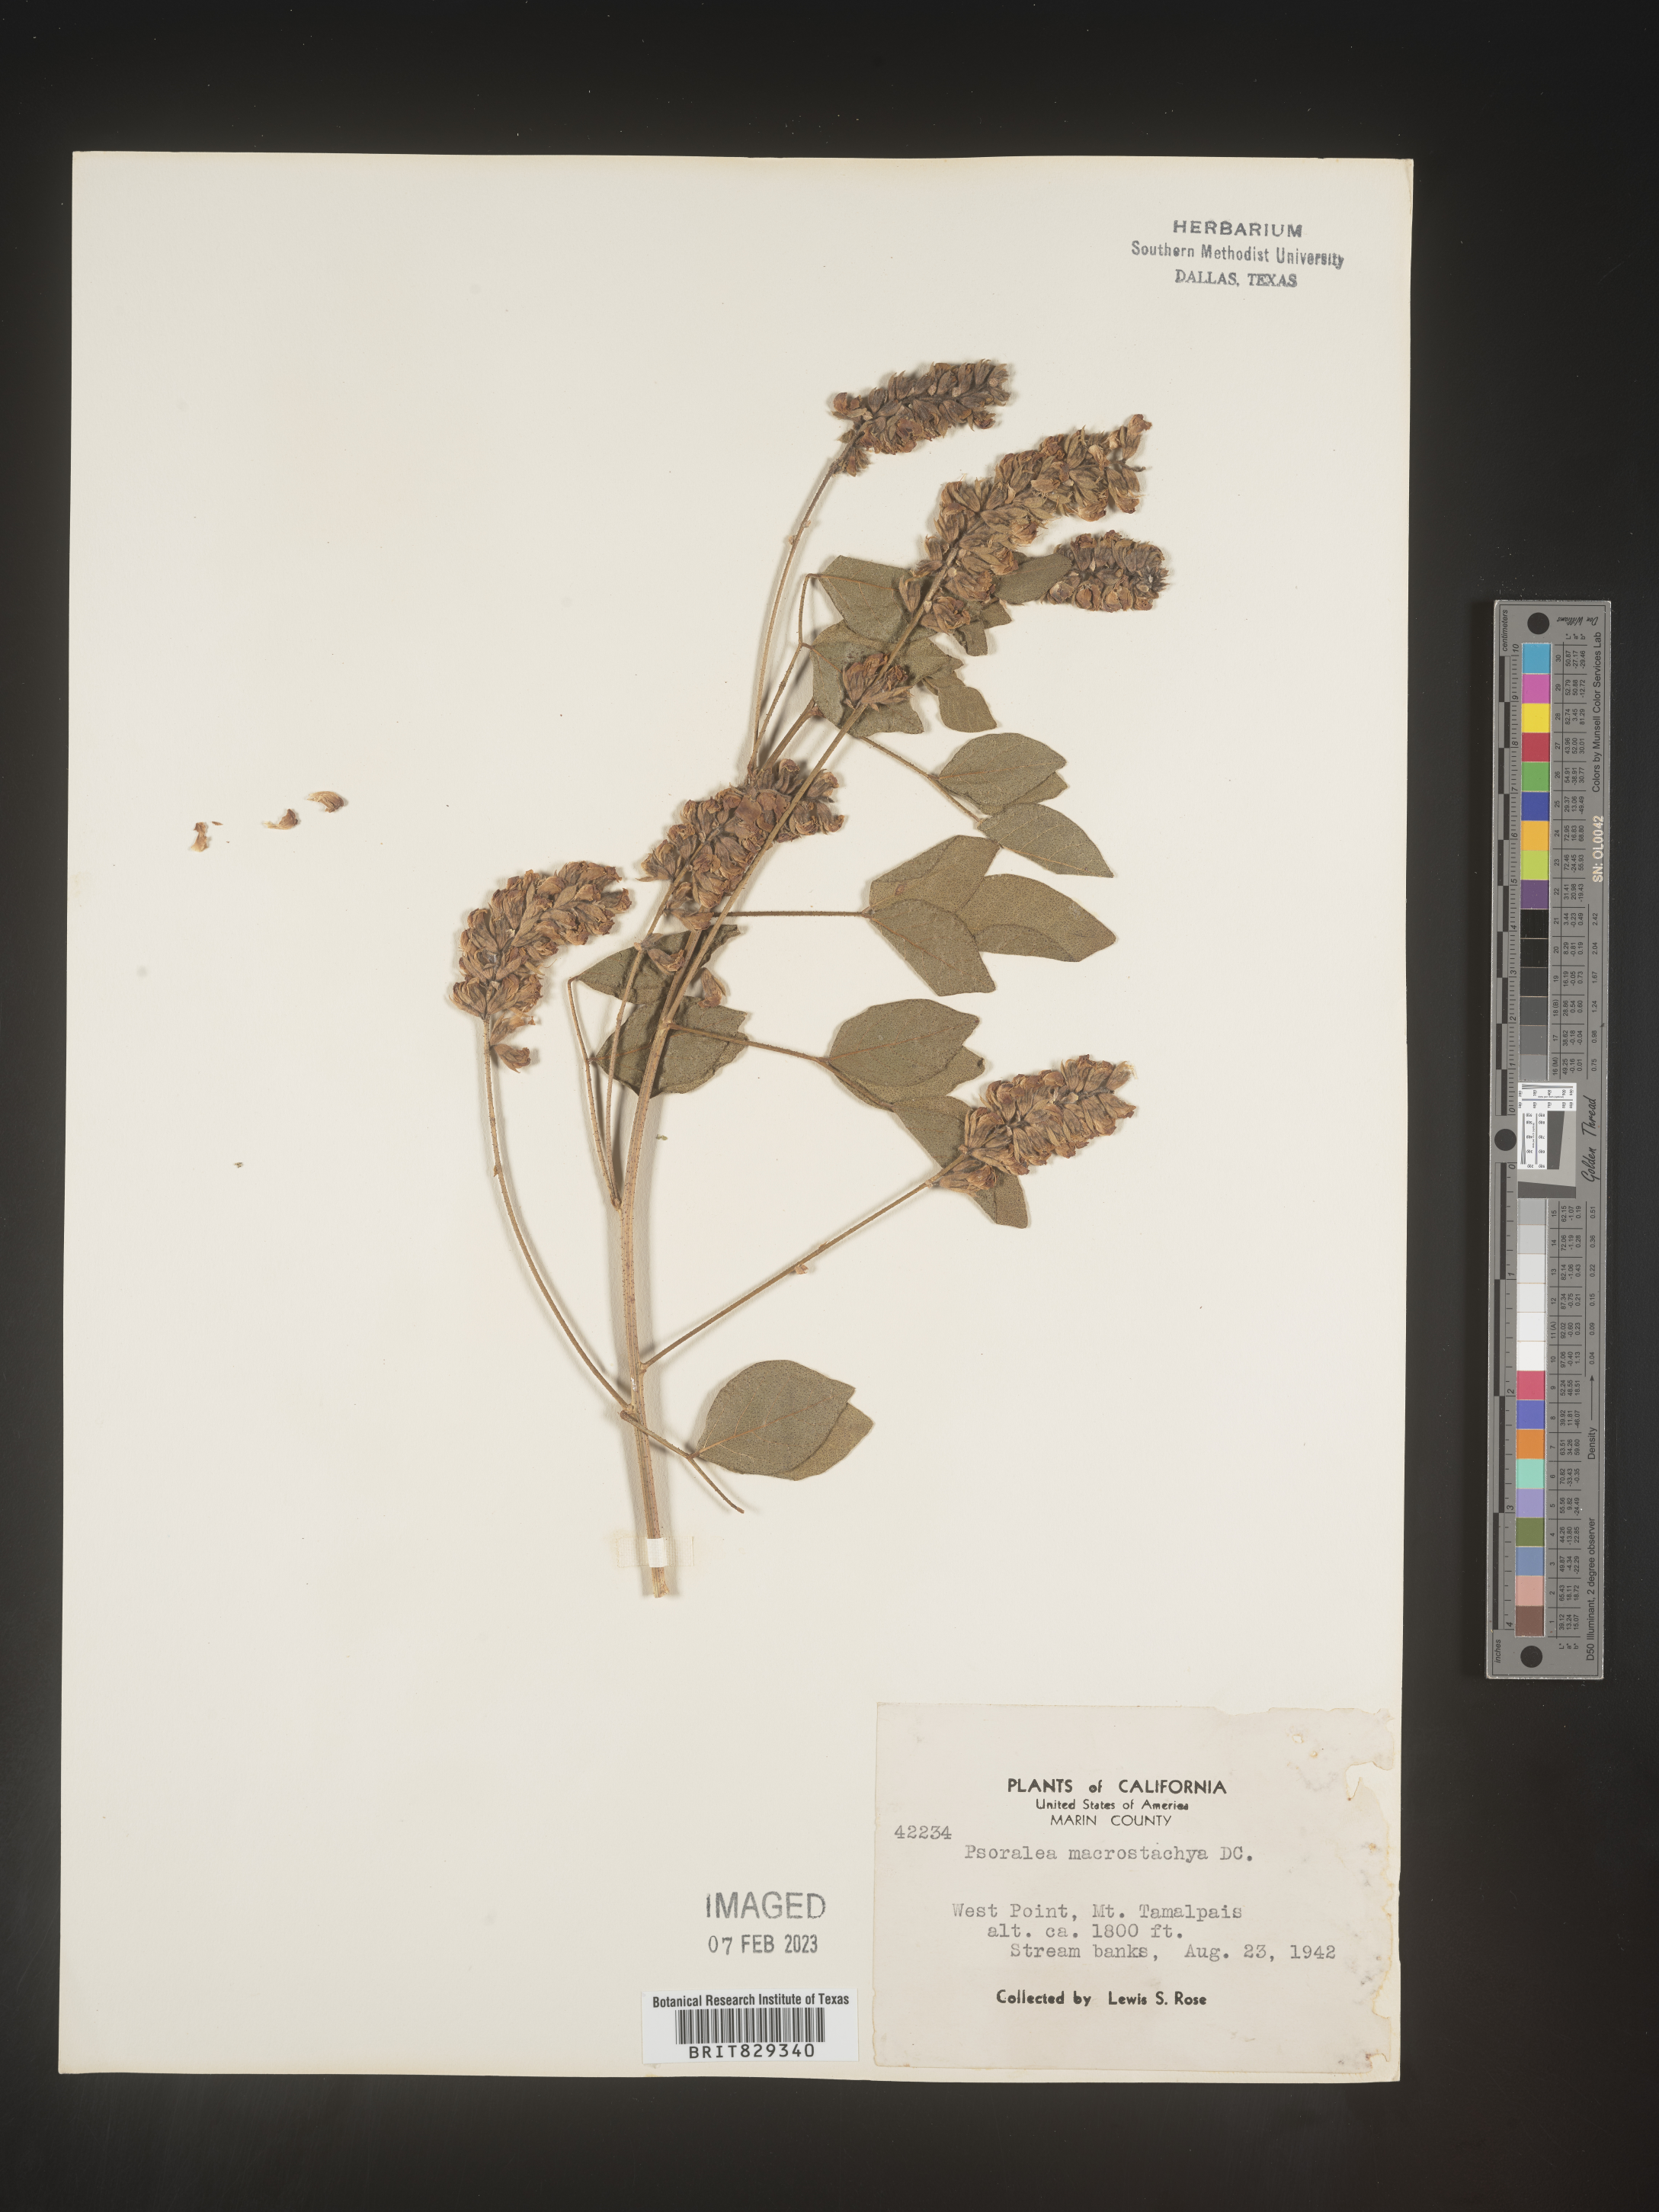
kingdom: Plantae
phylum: Tracheophyta
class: Magnoliopsida
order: Fabales
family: Fabaceae
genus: Psoralea
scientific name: Psoralea
